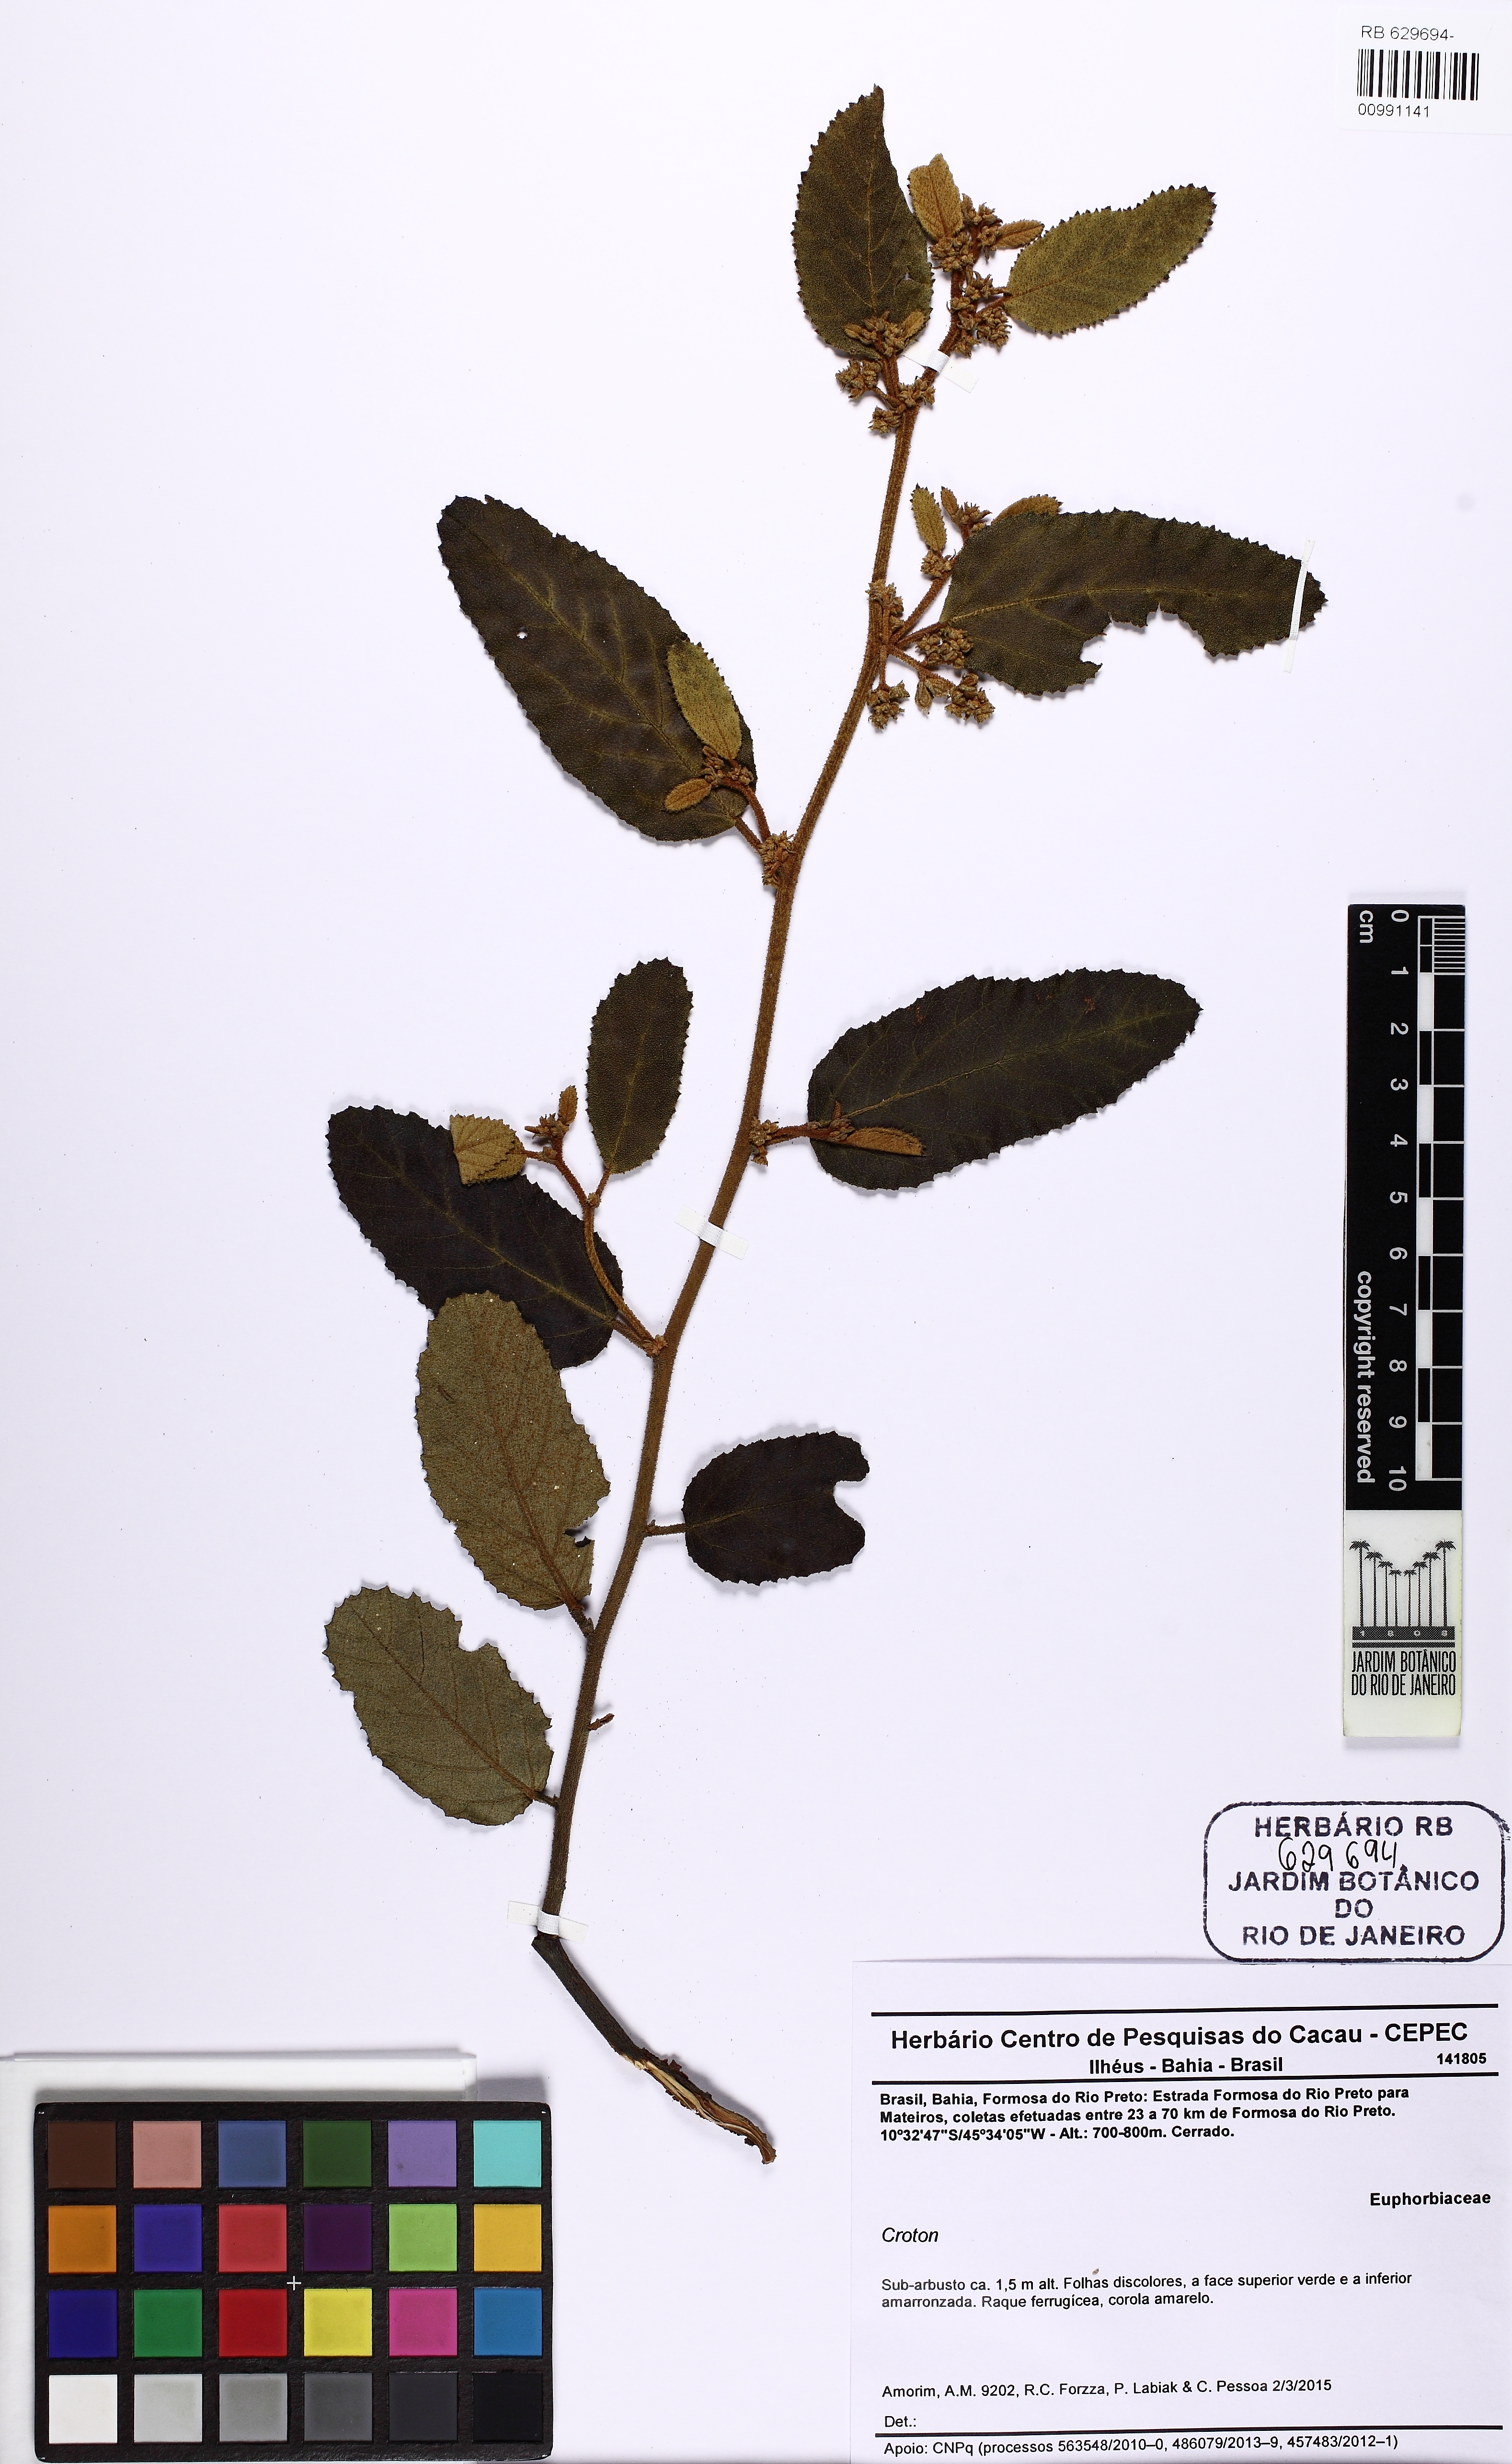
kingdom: Plantae
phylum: Tracheophyta
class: Magnoliopsida
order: Malpighiales
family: Euphorbiaceae
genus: Croton
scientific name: Croton
